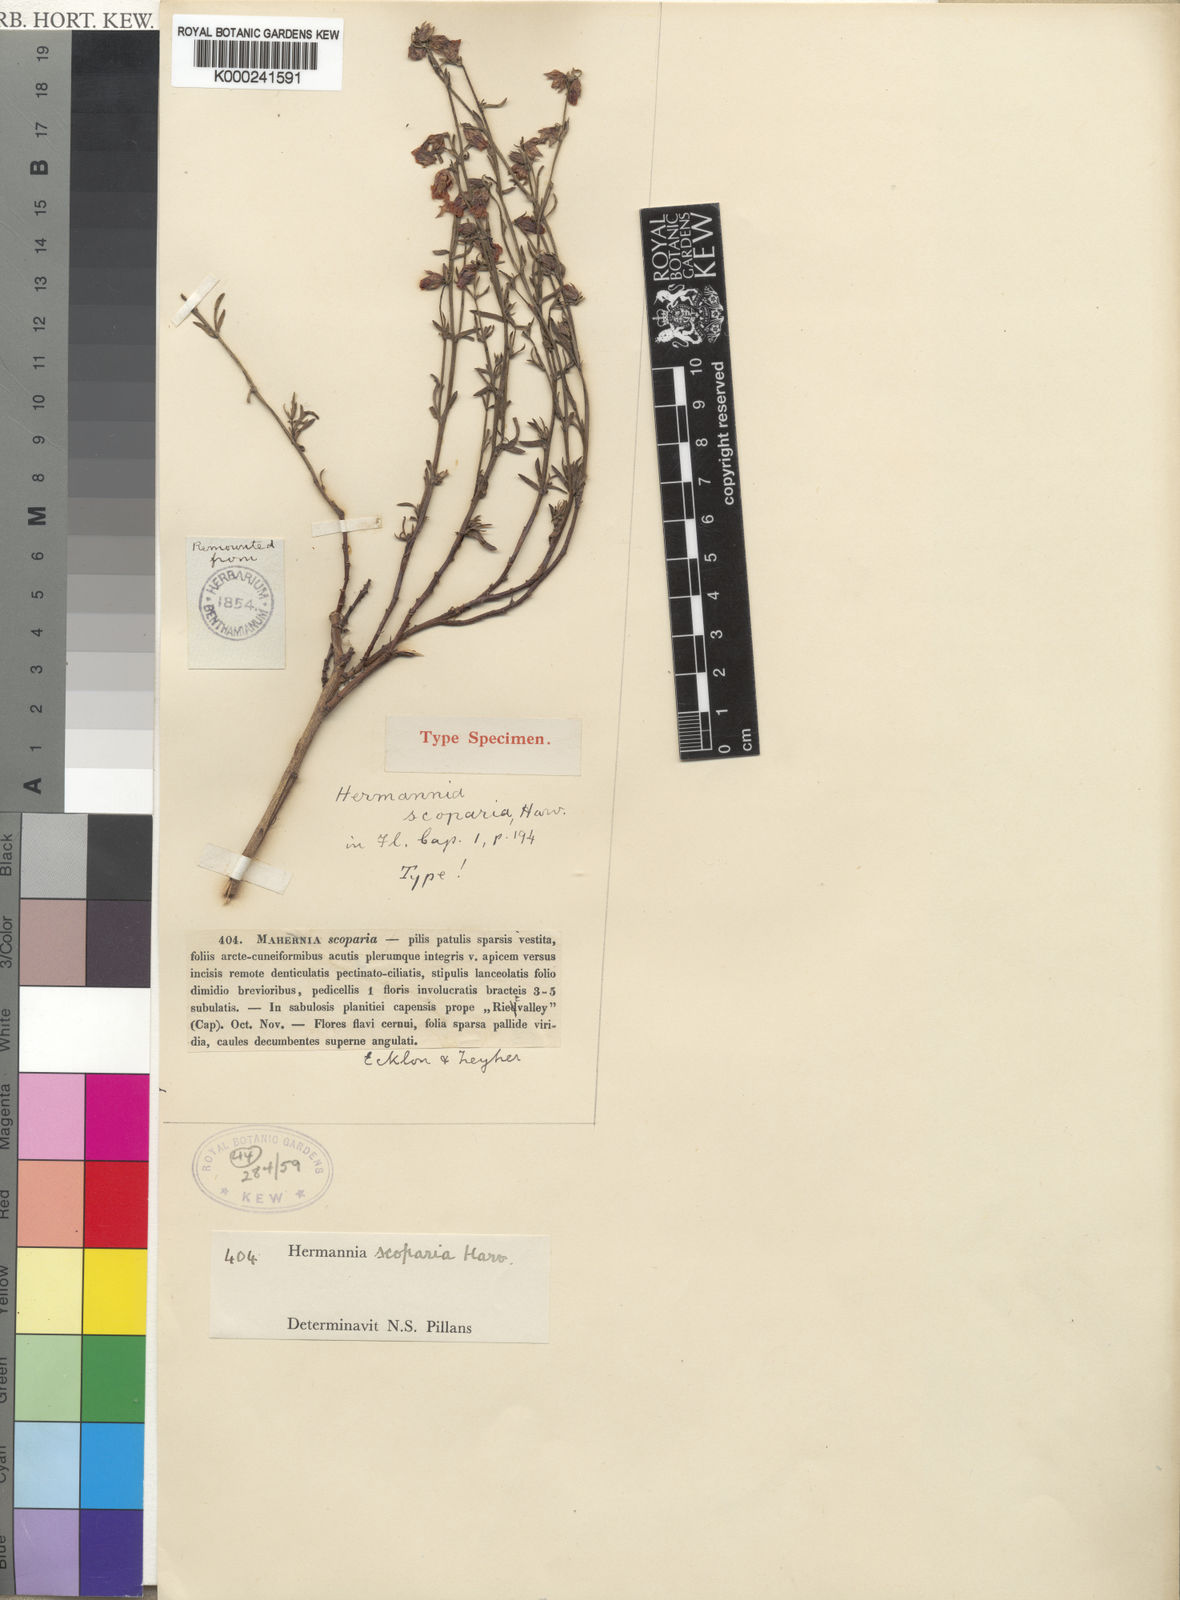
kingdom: Plantae
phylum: Tracheophyta
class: Magnoliopsida
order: Malvales
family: Malvaceae
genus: Hermannia
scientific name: Hermannia linifolia
